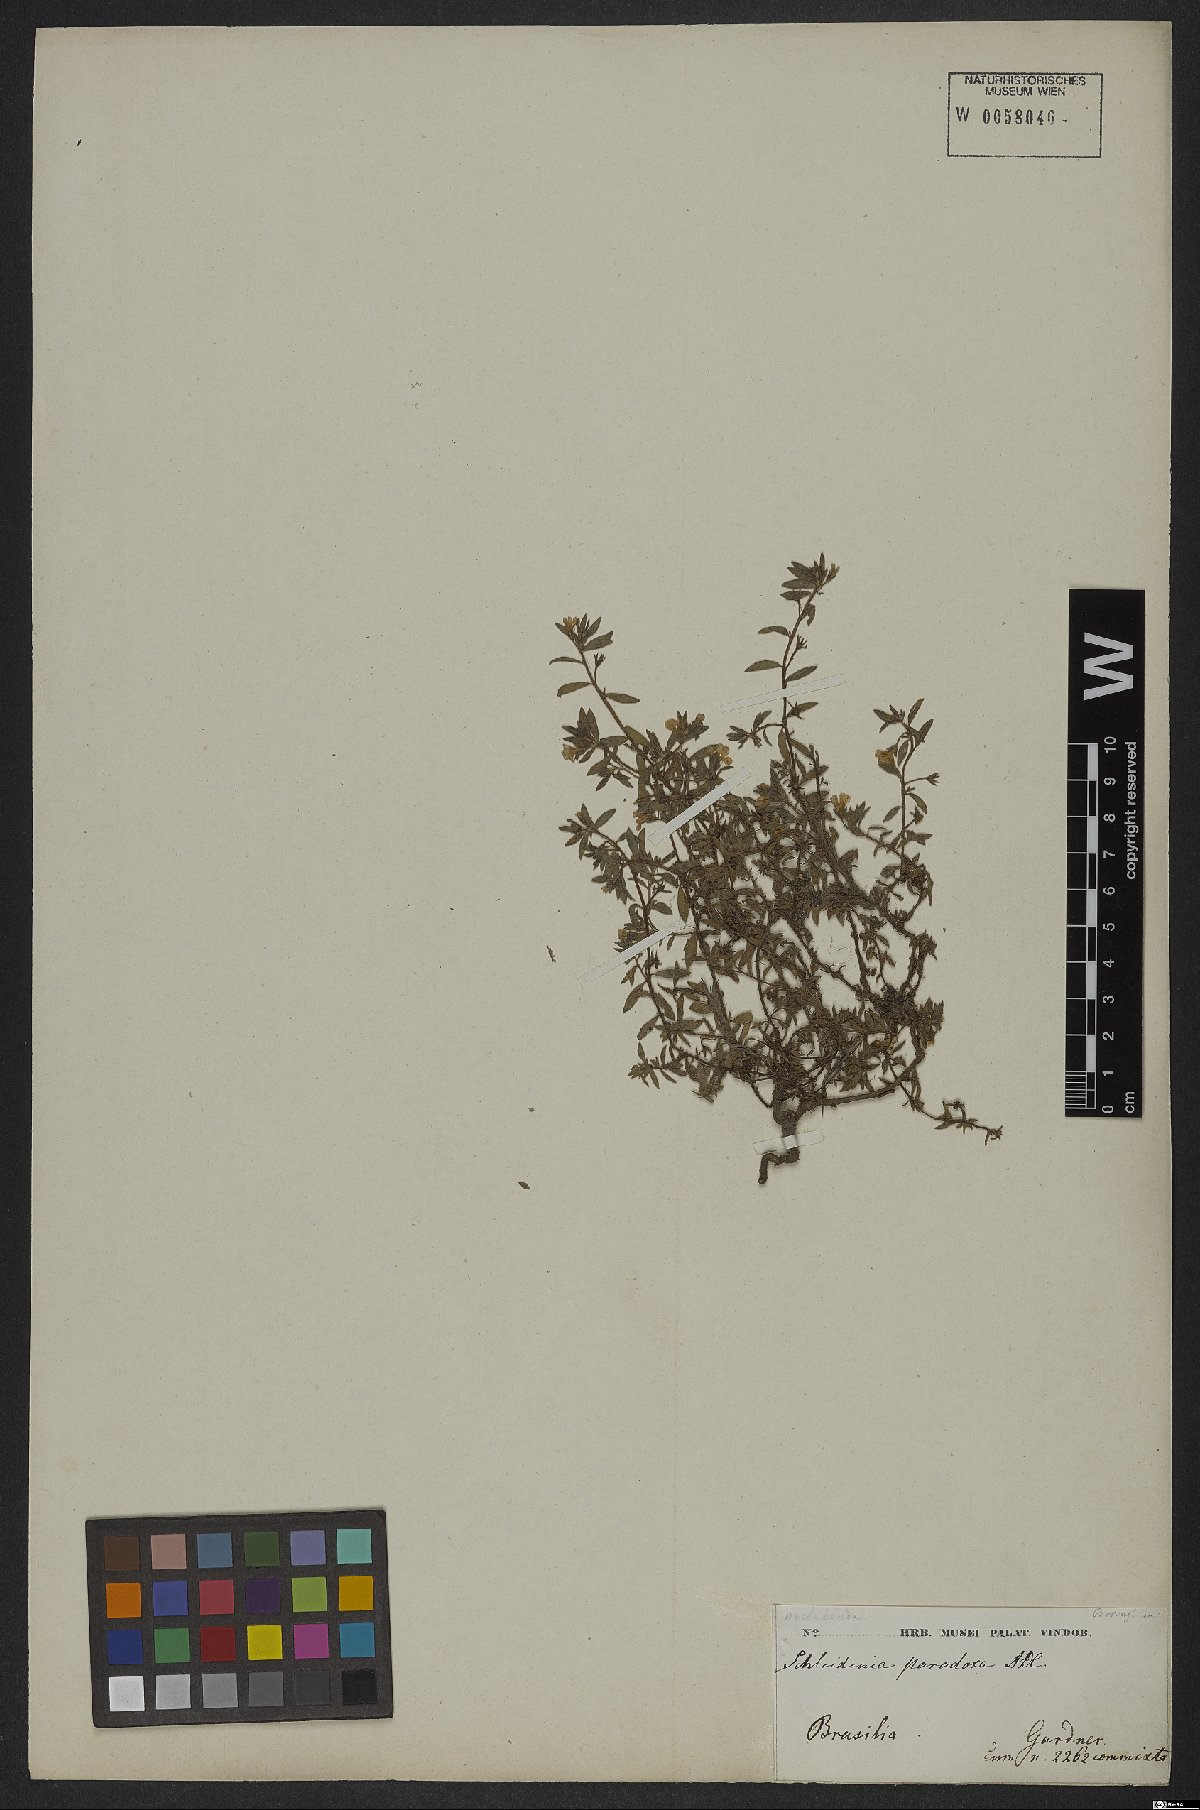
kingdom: Plantae
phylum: Tracheophyta
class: Magnoliopsida
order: Boraginales
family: Heliotropiaceae
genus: Heliotropium
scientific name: Heliotropium macrodon
